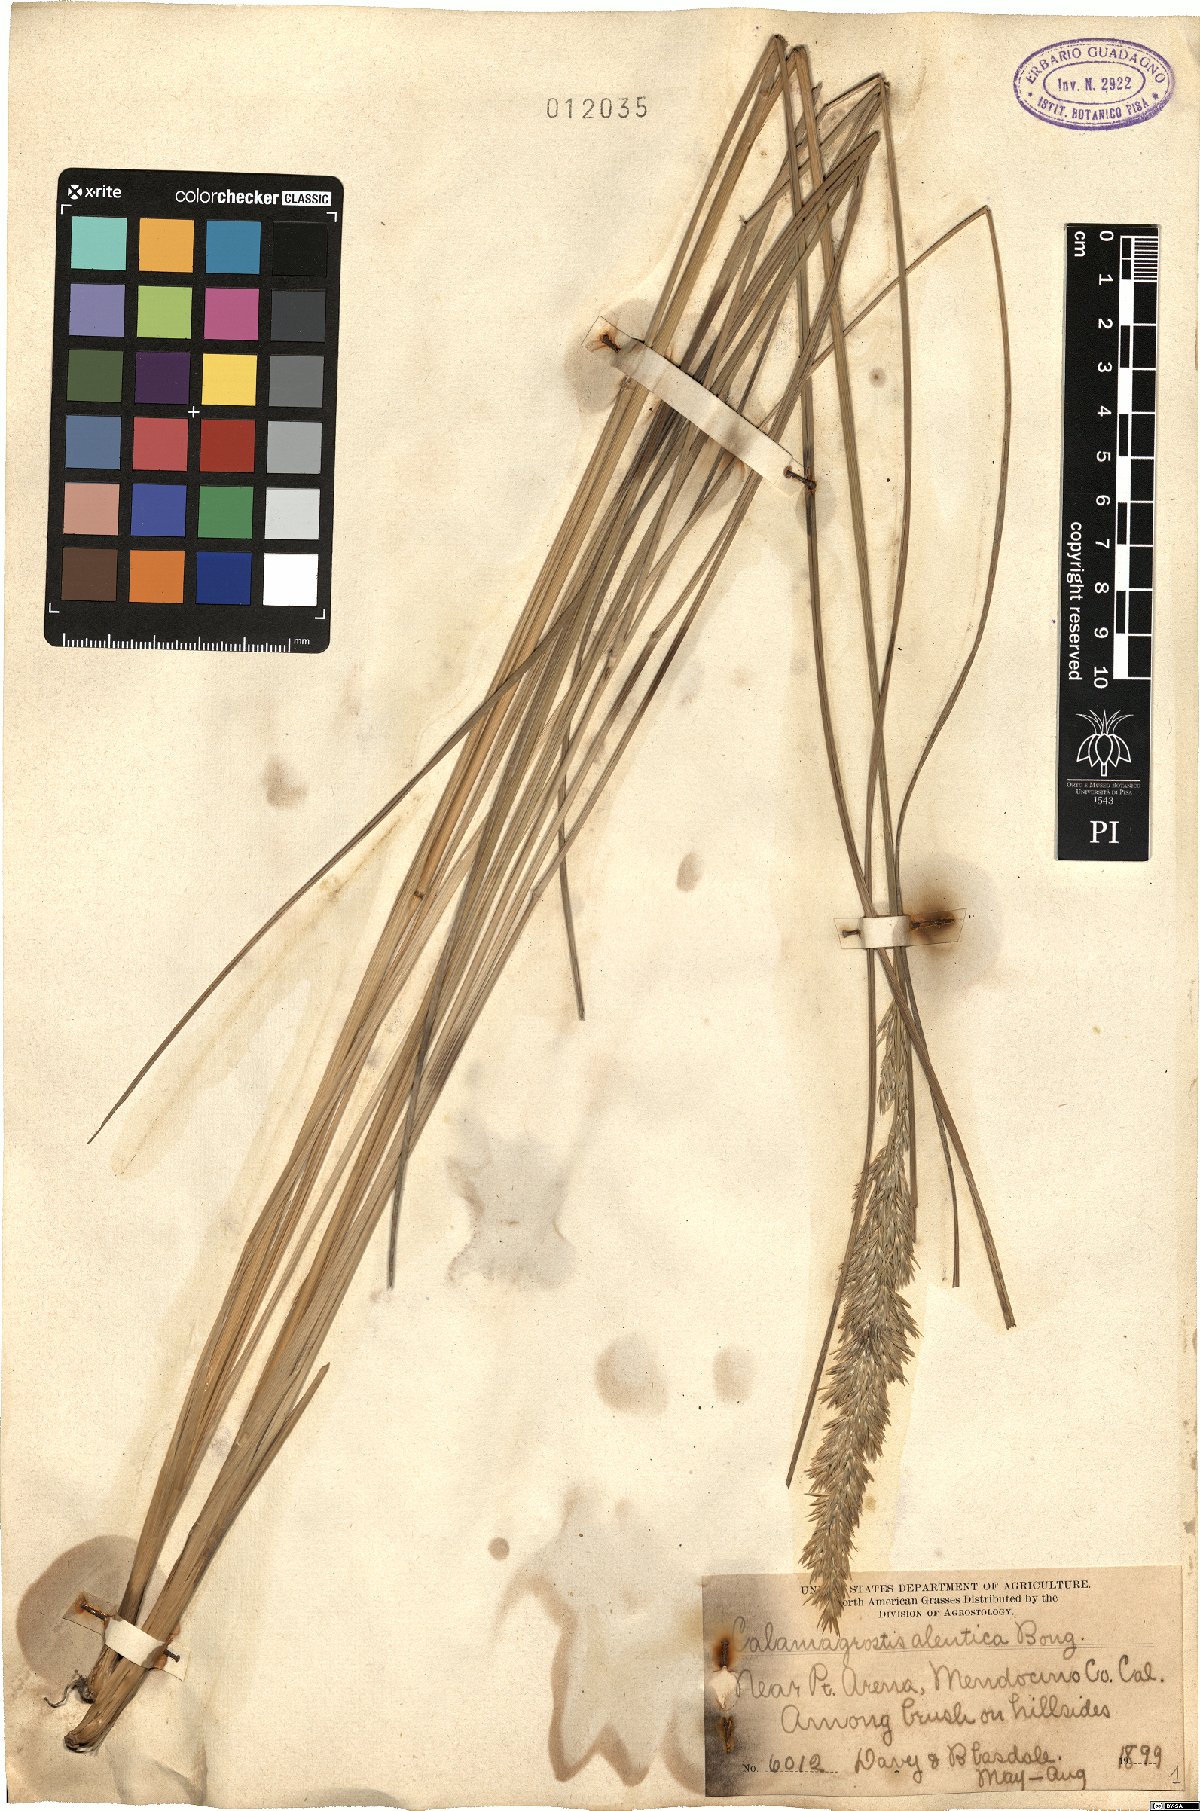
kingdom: Plantae
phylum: Tracheophyta
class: Liliopsida
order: Poales
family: Poaceae
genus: Calamagrostis
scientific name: Calamagrostis nutkaensis
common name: Pacific reed grass
